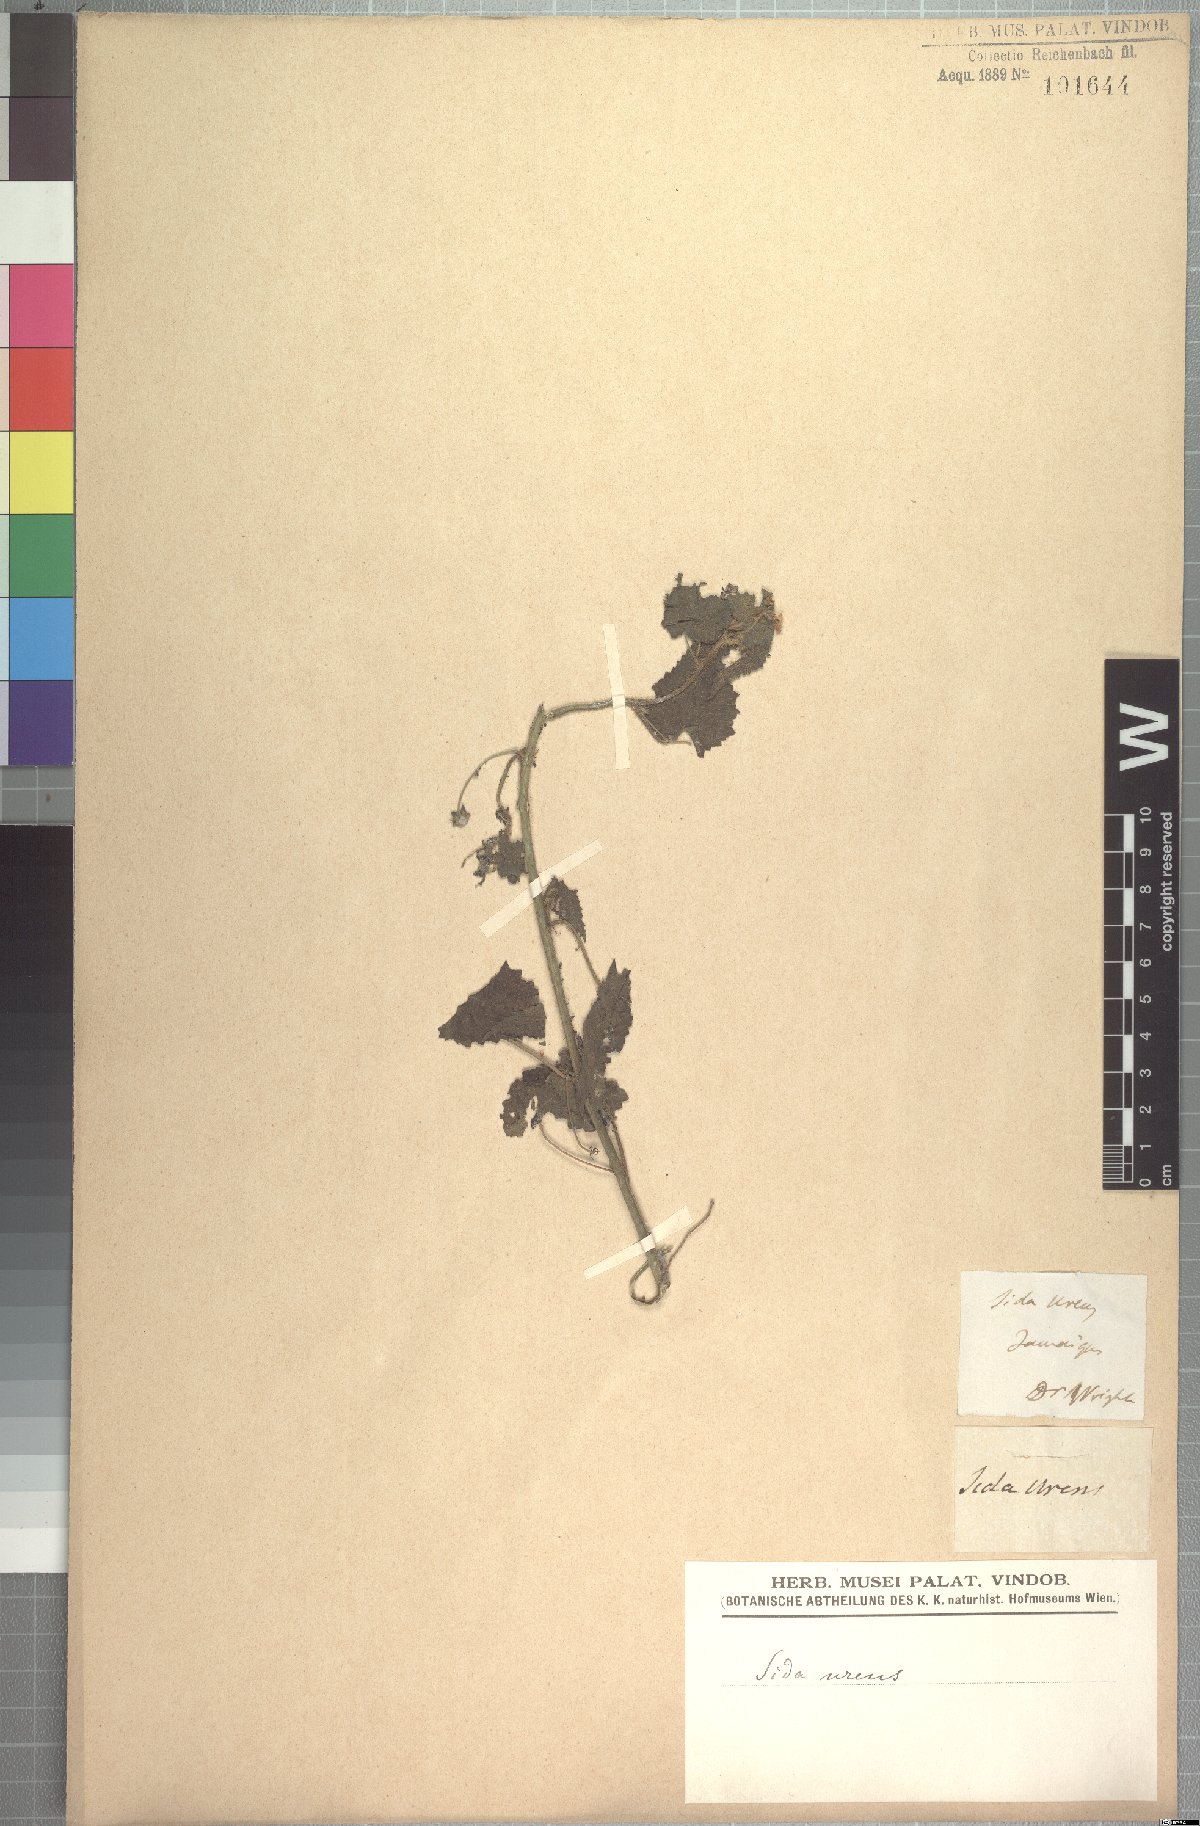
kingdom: Plantae
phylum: Tracheophyta
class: Magnoliopsida
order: Malvales
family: Malvaceae
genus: Sida
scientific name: Sida urens
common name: Tropical fanpetals
